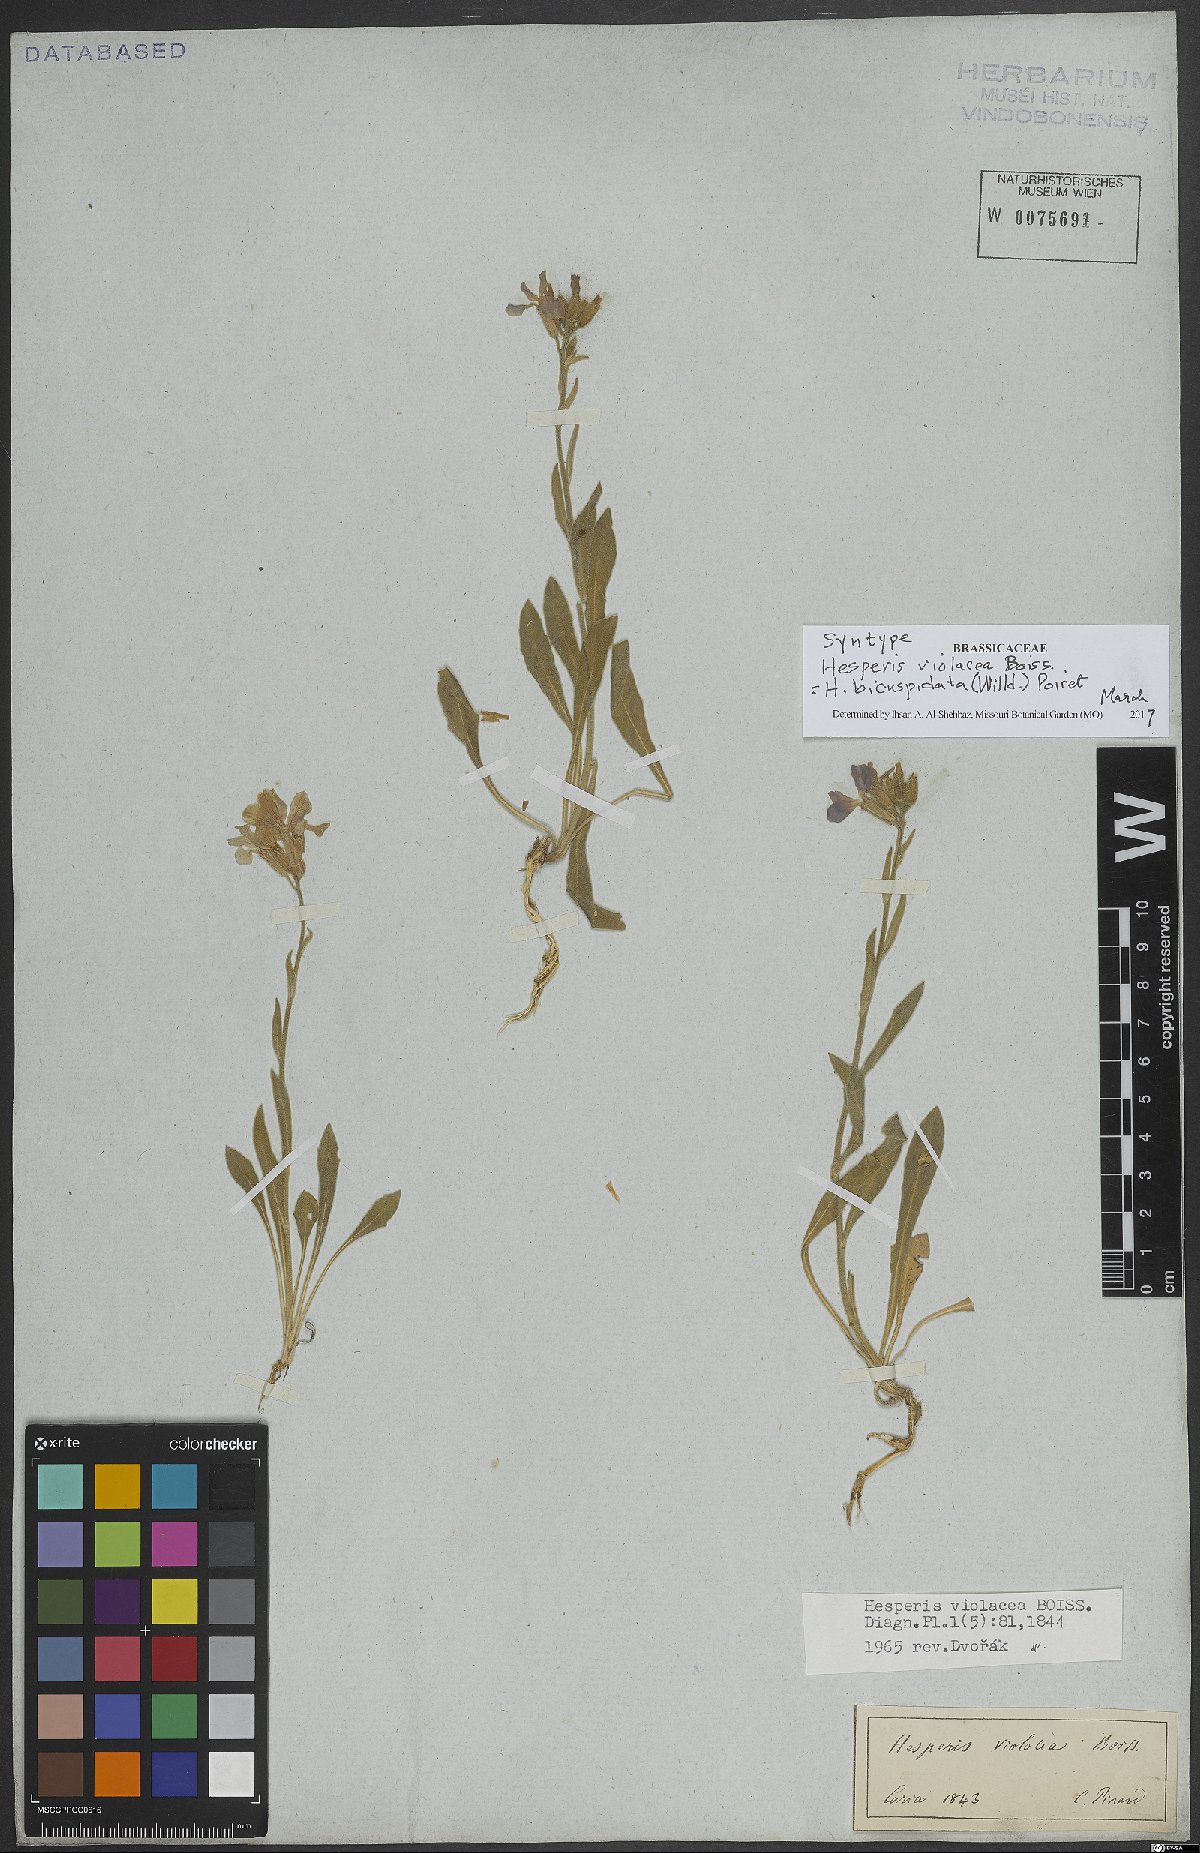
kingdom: Plantae
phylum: Tracheophyta
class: Magnoliopsida
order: Brassicales
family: Brassicaceae
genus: Hesperis
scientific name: Hesperis bicuspidata
